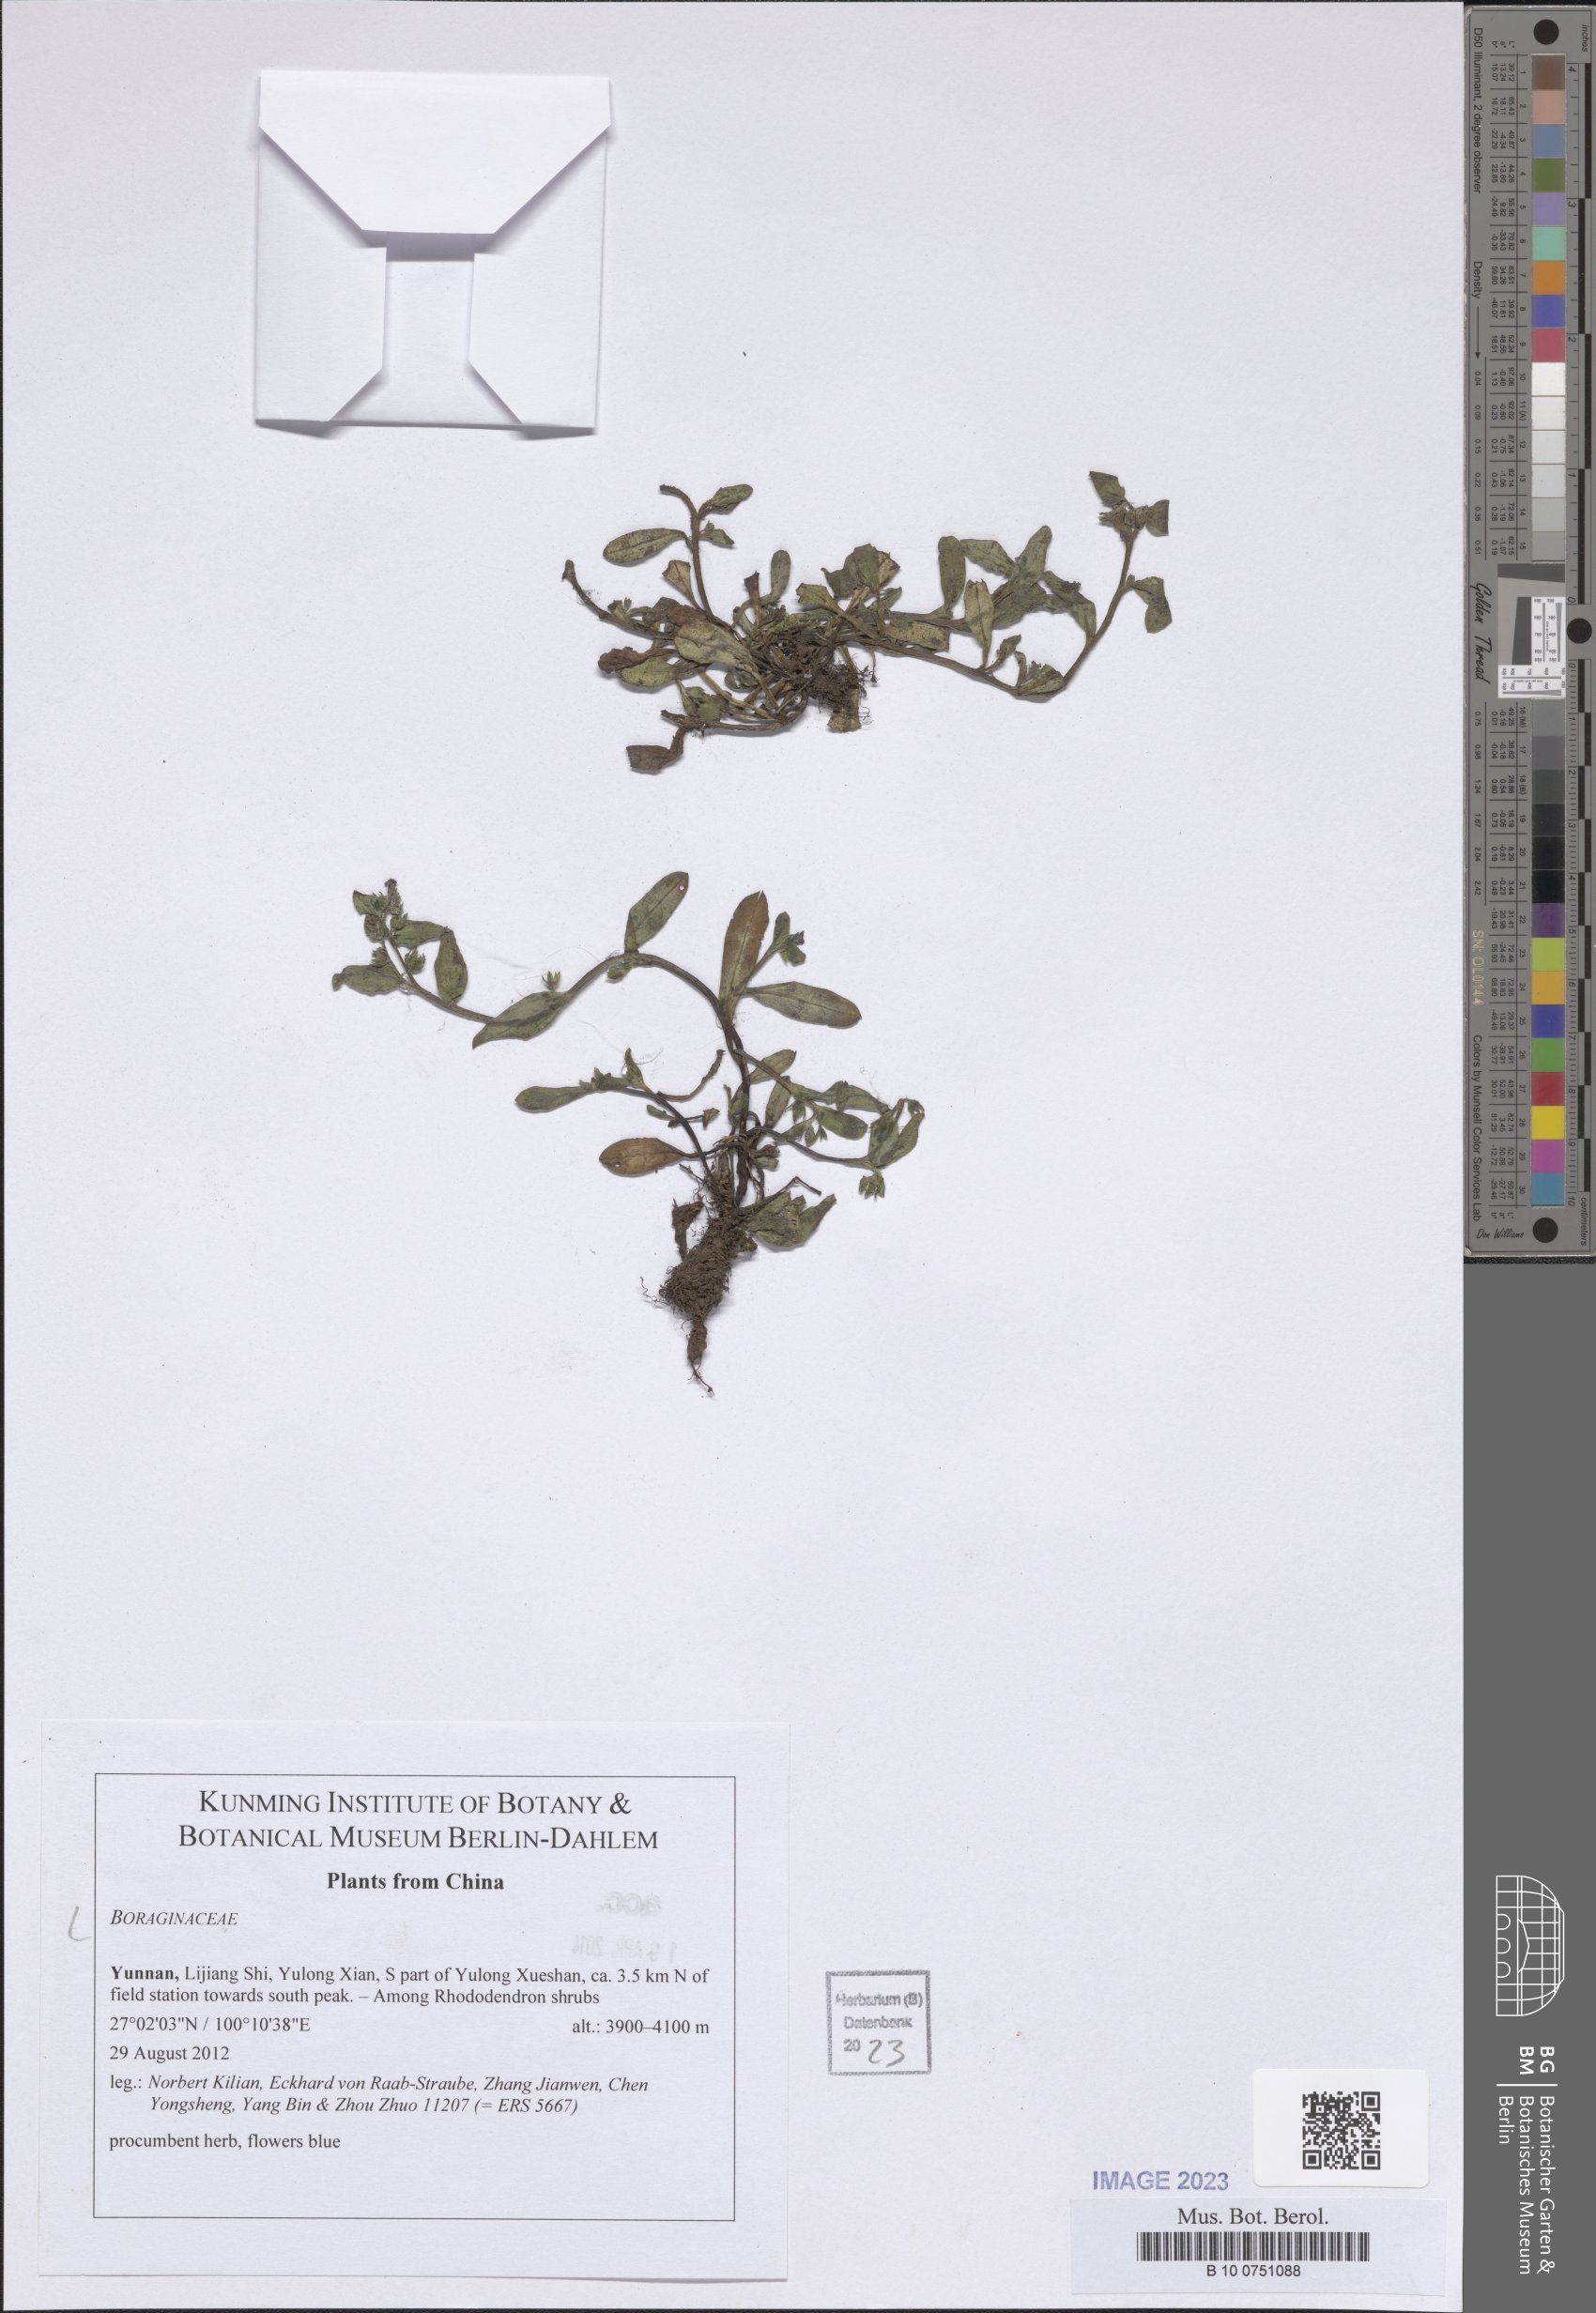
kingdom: Plantae
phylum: Tracheophyta
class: Magnoliopsida
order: Boraginales
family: Boraginaceae
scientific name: Boraginaceae
